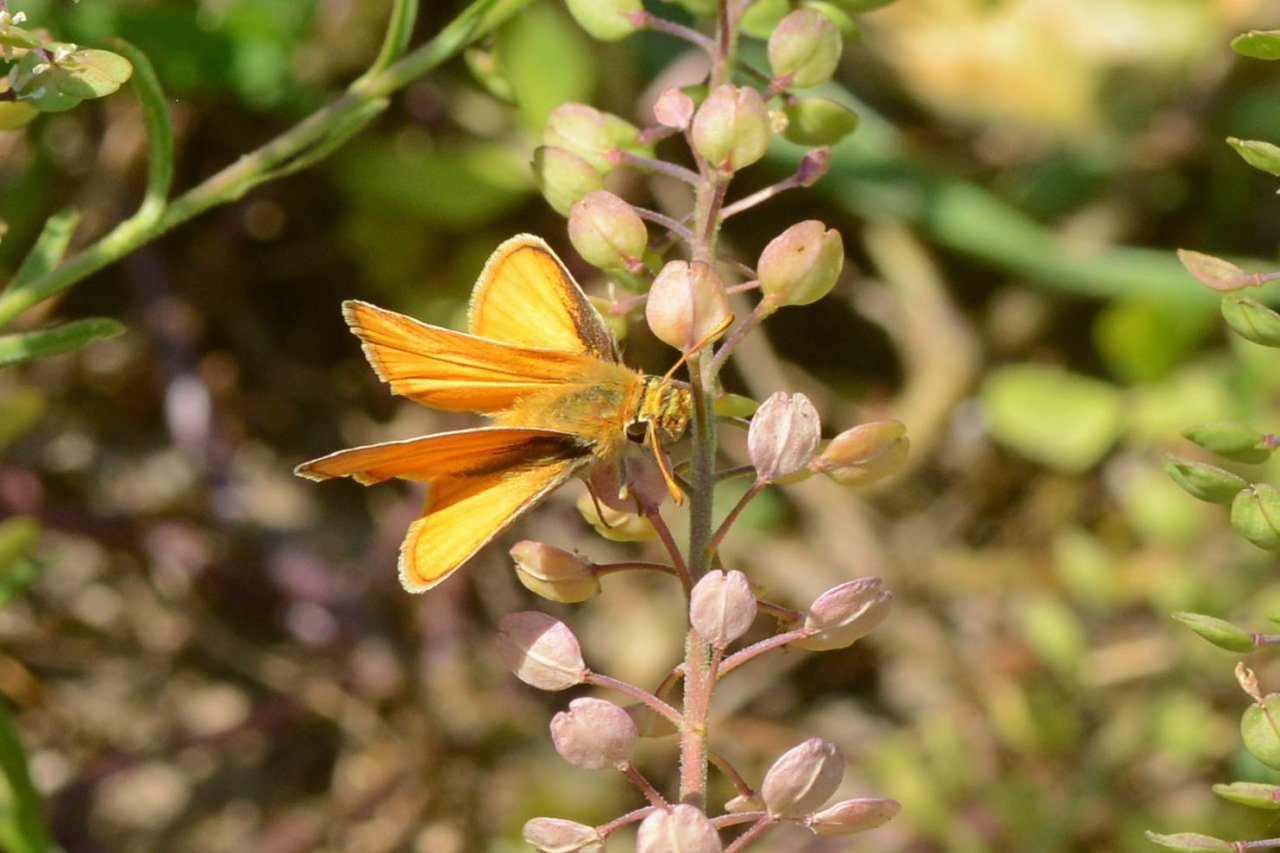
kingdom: Animalia
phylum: Arthropoda
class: Insecta
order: Lepidoptera
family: Hesperiidae
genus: Copaeodes
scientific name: Copaeodes aurantiaca
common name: Orange Skipperling
